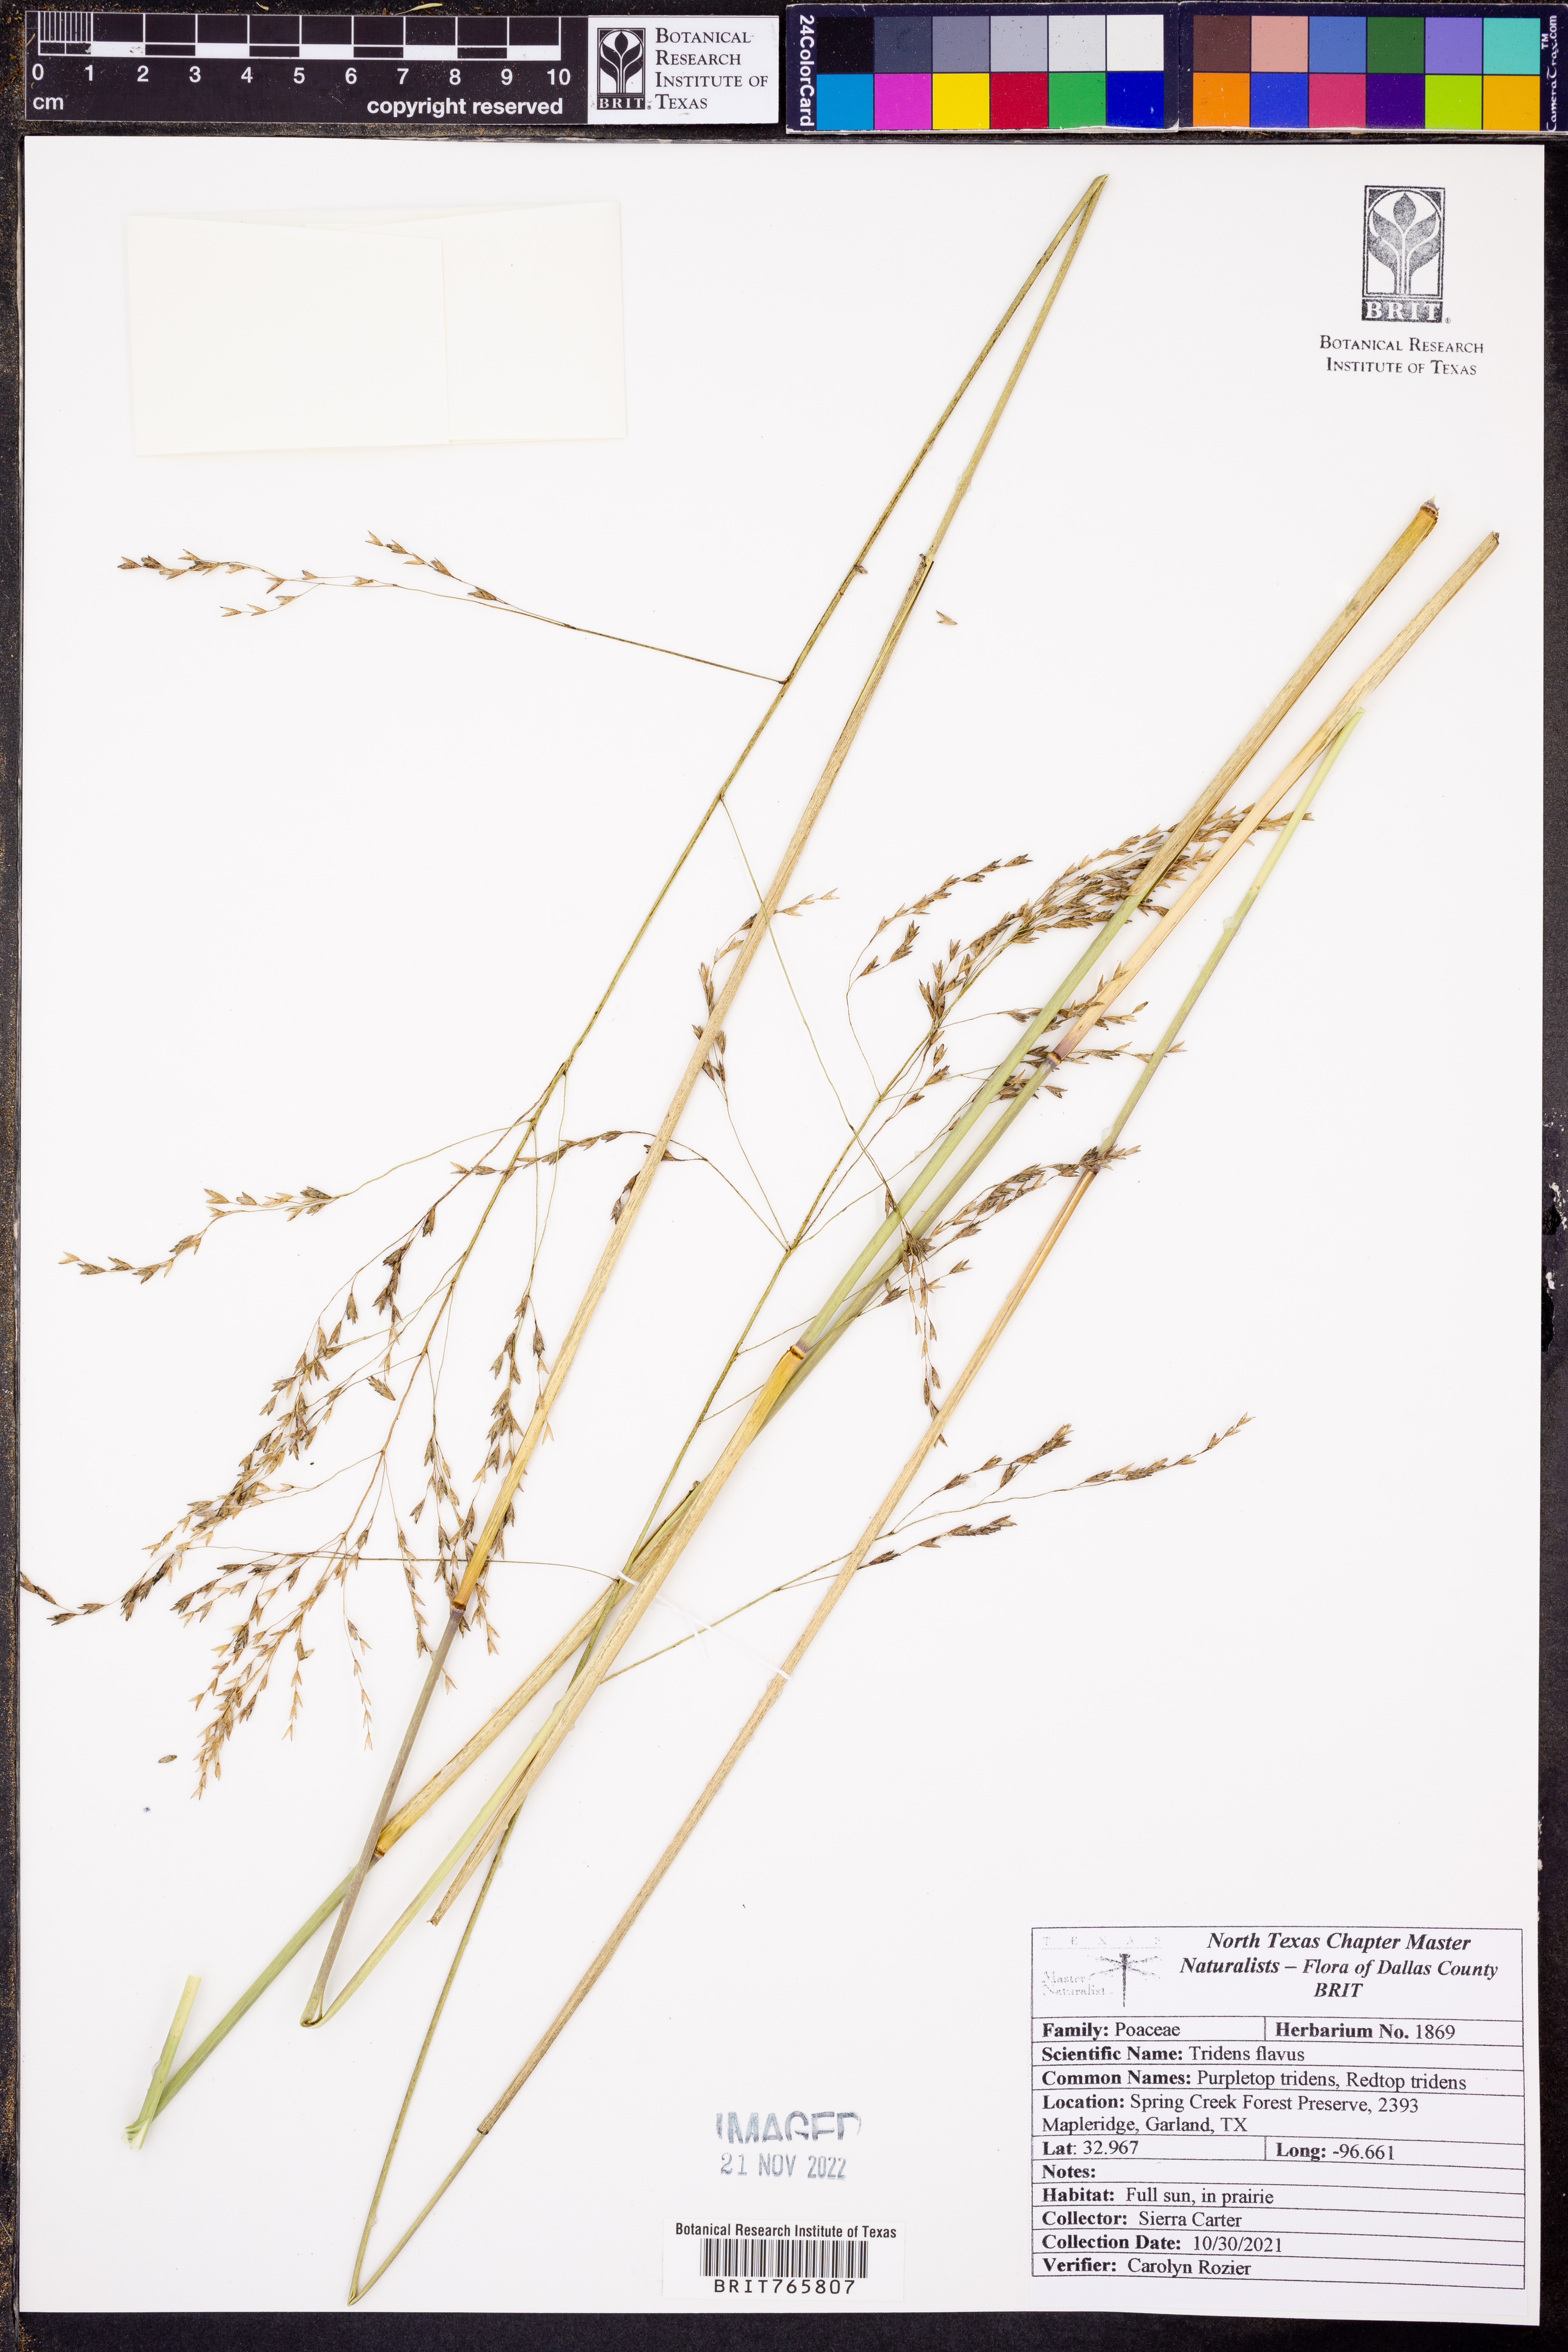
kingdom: Plantae
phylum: Tracheophyta
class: Liliopsida
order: Poales
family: Poaceae
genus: Tridens
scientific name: Tridens flavus
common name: Purpletop
